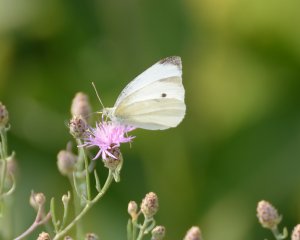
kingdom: Animalia
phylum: Arthropoda
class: Insecta
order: Lepidoptera
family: Pieridae
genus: Pieris
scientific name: Pieris rapae
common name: Cabbage White
